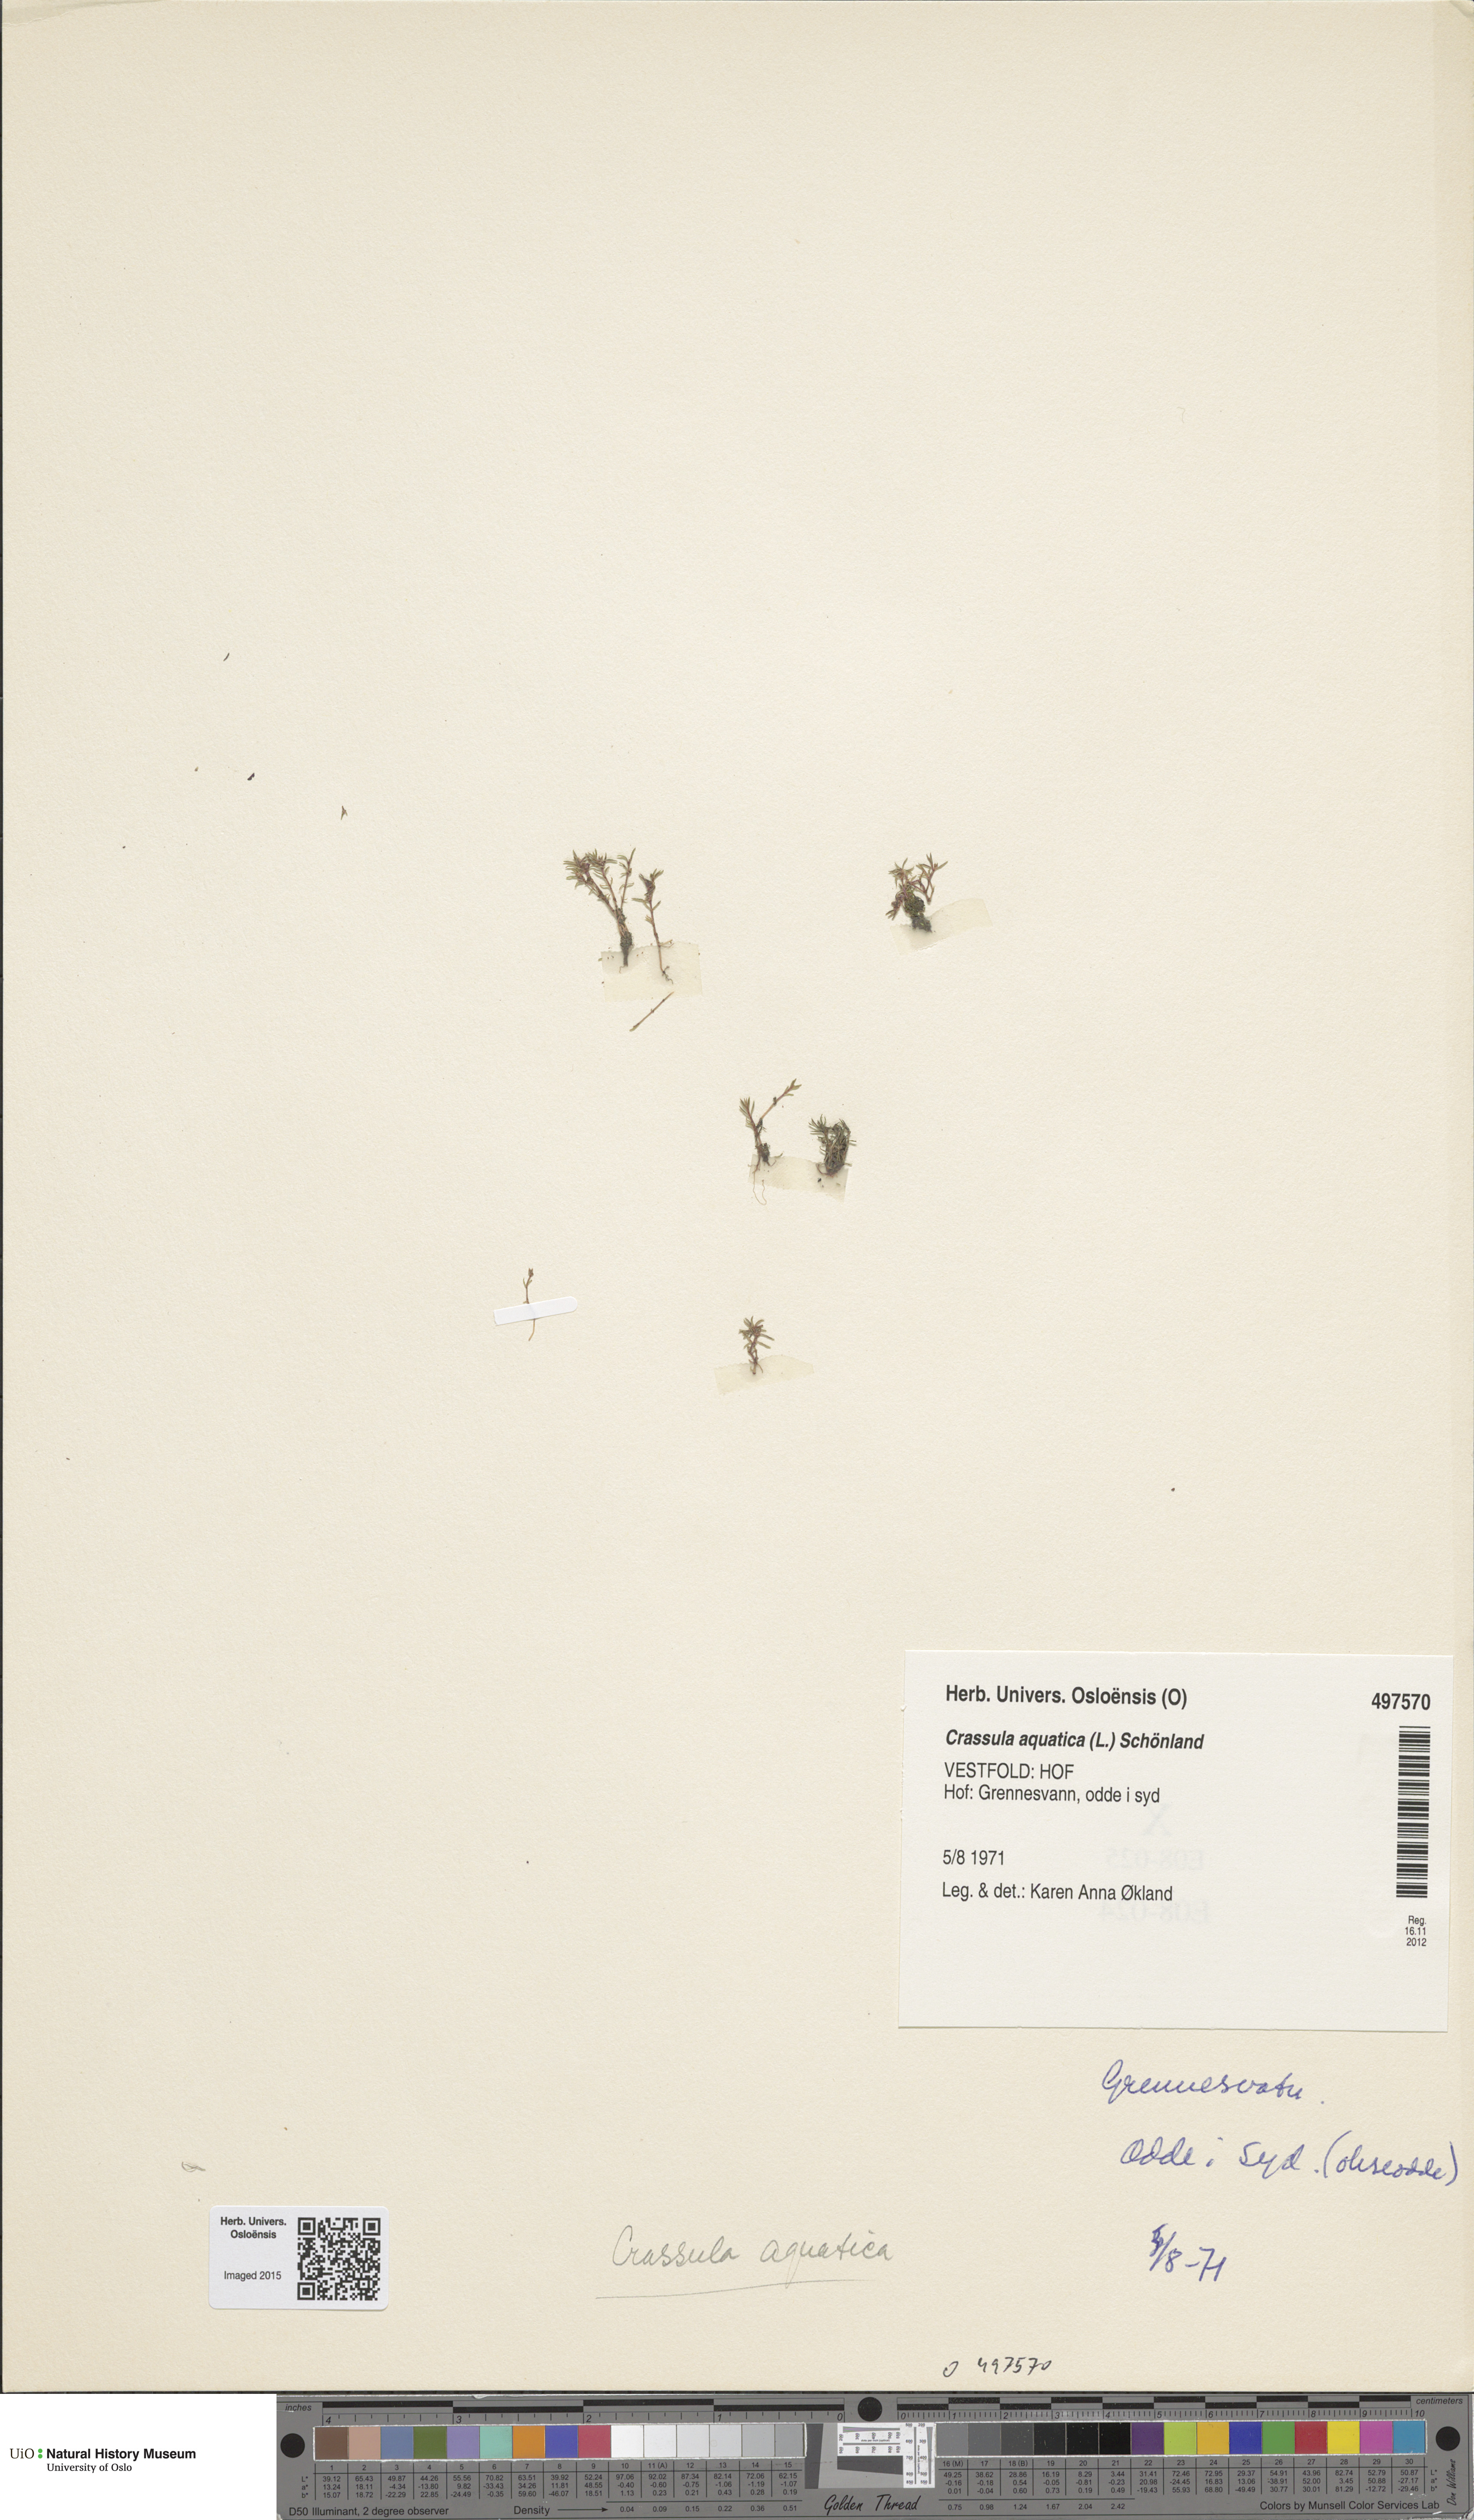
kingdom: Plantae
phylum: Tracheophyta
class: Magnoliopsida
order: Saxifragales
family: Crassulaceae
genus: Crassula
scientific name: Crassula aquatica
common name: Pigmyweed
